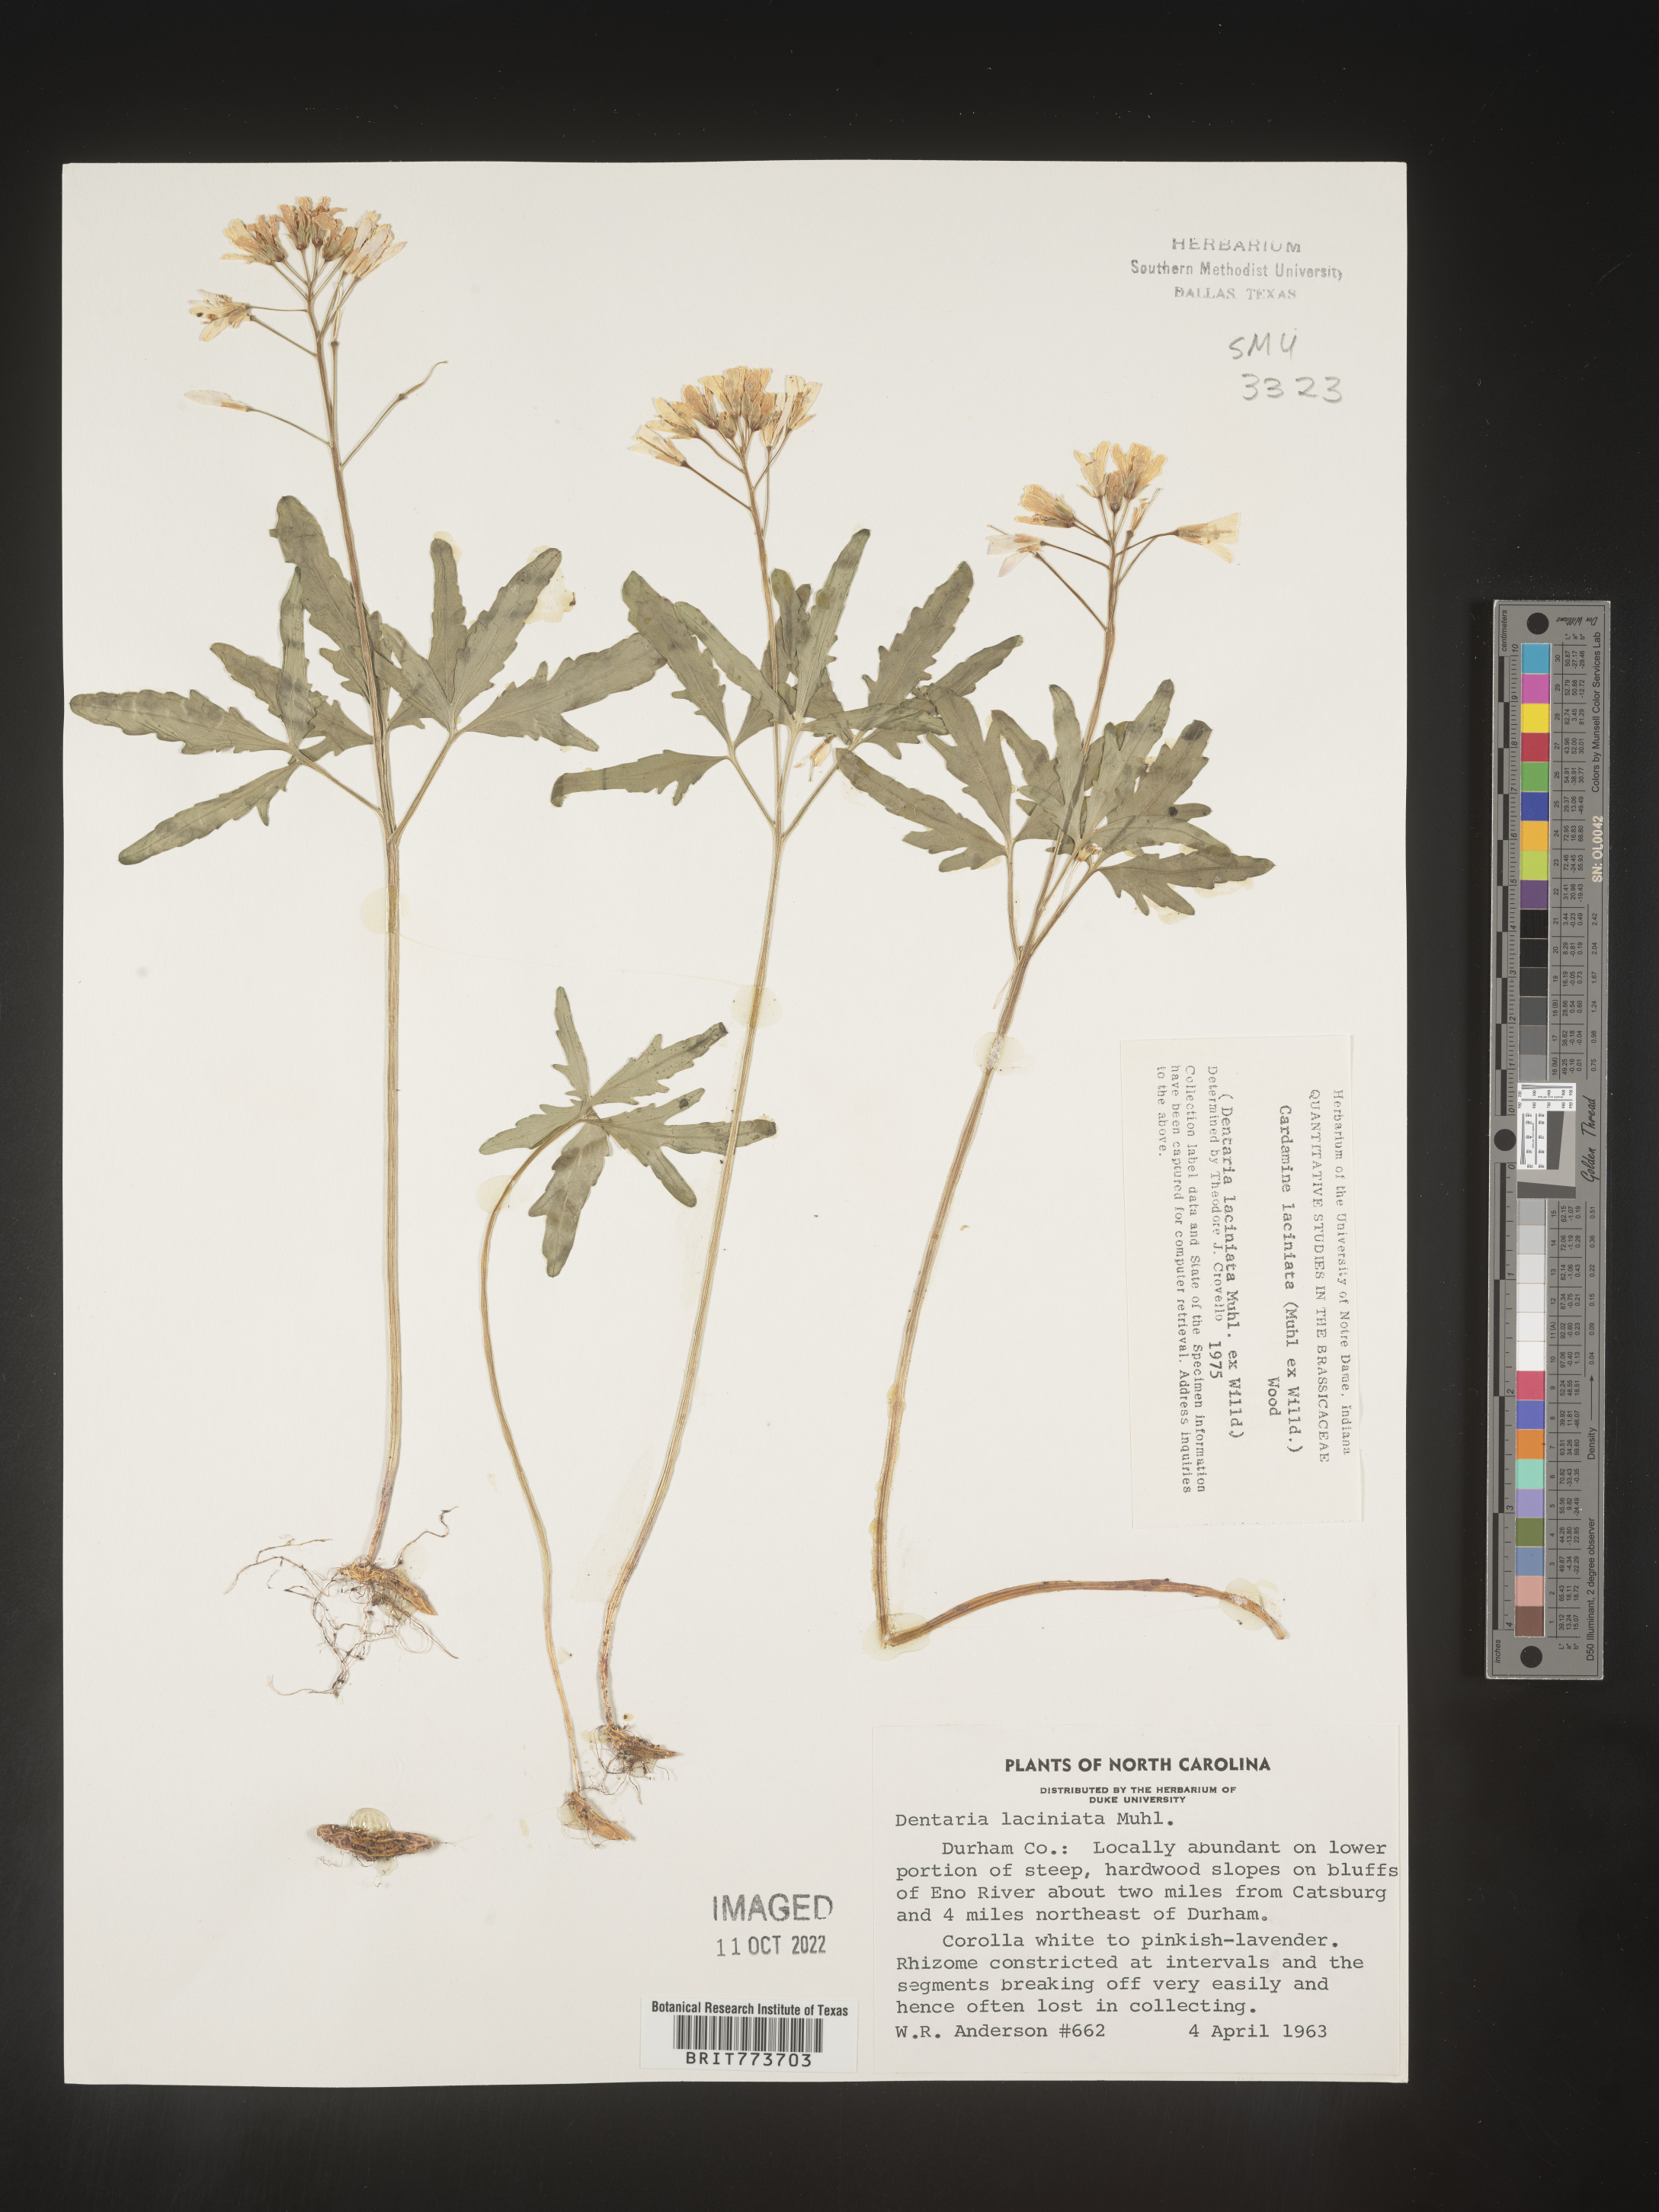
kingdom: Plantae
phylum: Tracheophyta
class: Magnoliopsida
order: Brassicales
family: Brassicaceae
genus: Rorippa
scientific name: Rorippa laciniata
